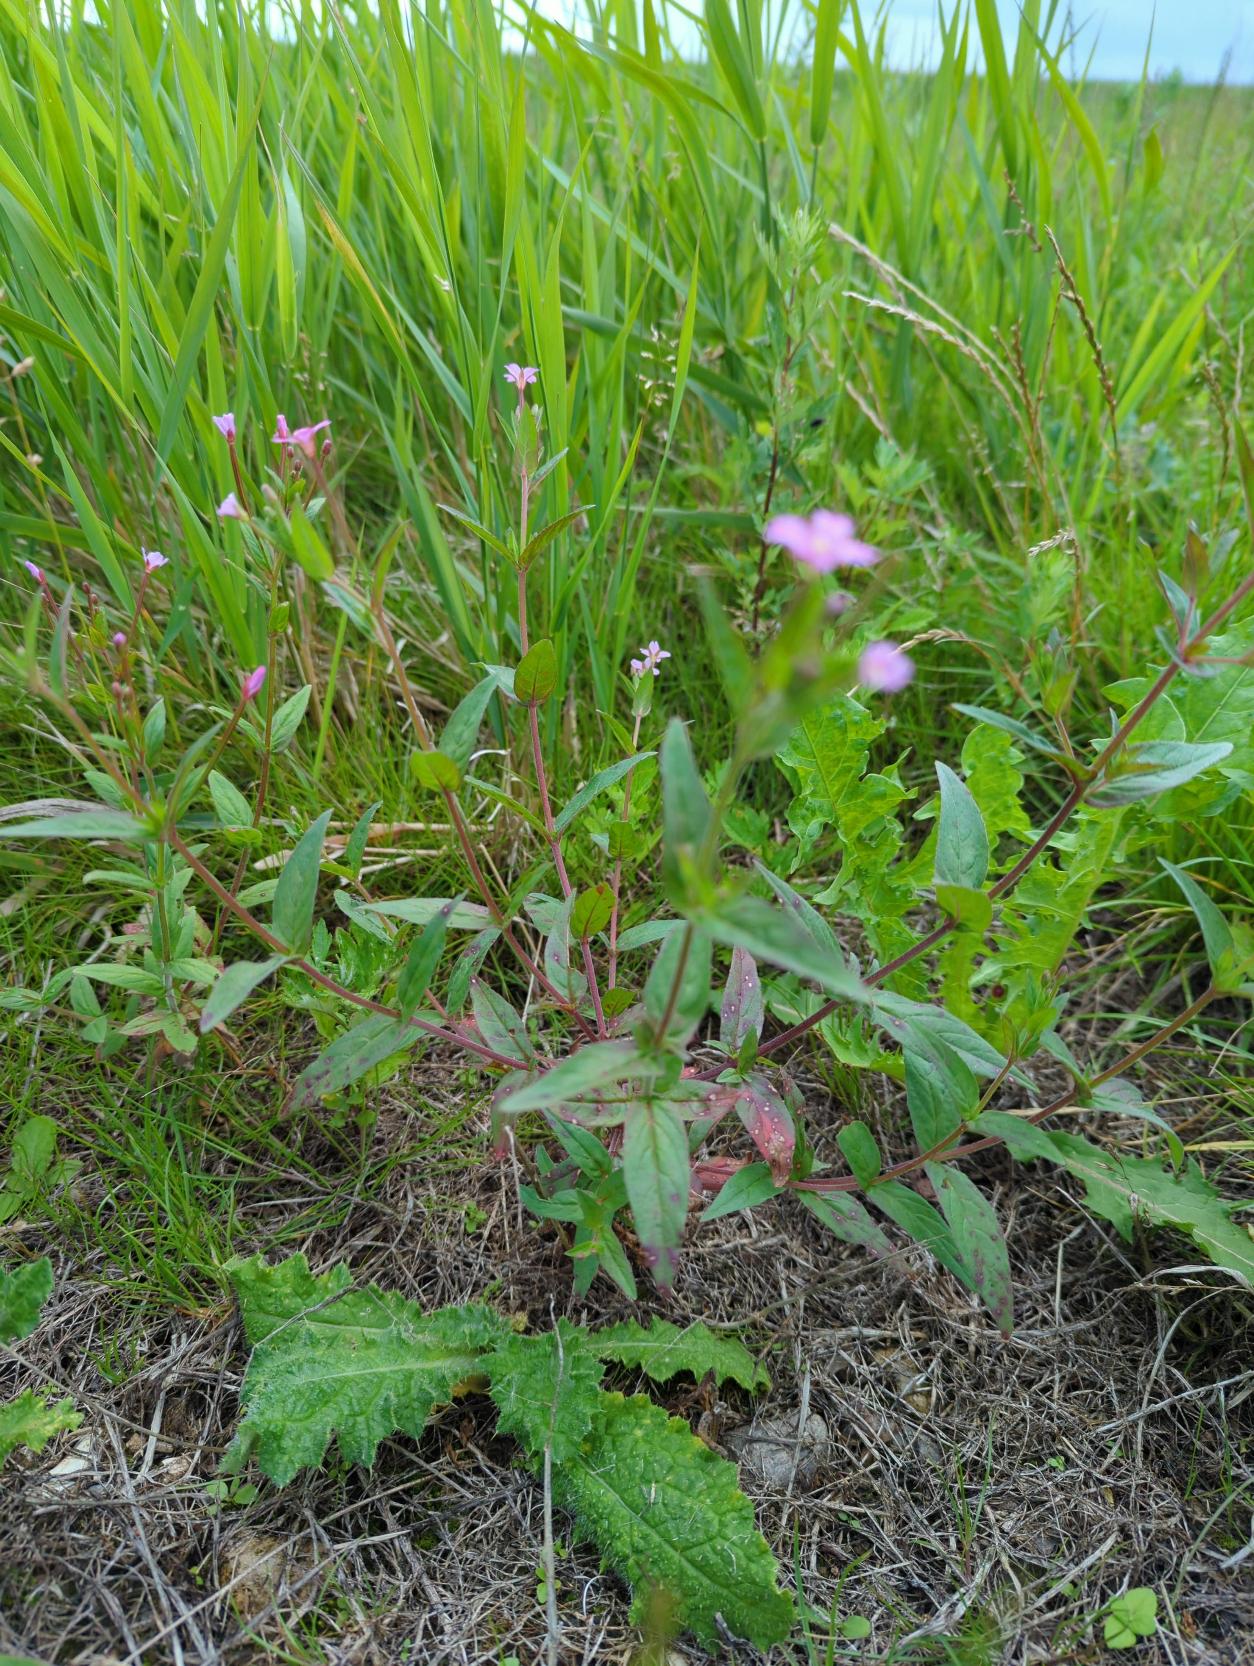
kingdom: Plantae
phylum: Tracheophyta
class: Magnoliopsida
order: Myrtales
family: Onagraceae
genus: Epilobium
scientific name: Epilobium ciliatum
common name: Kirtlet dueurt
